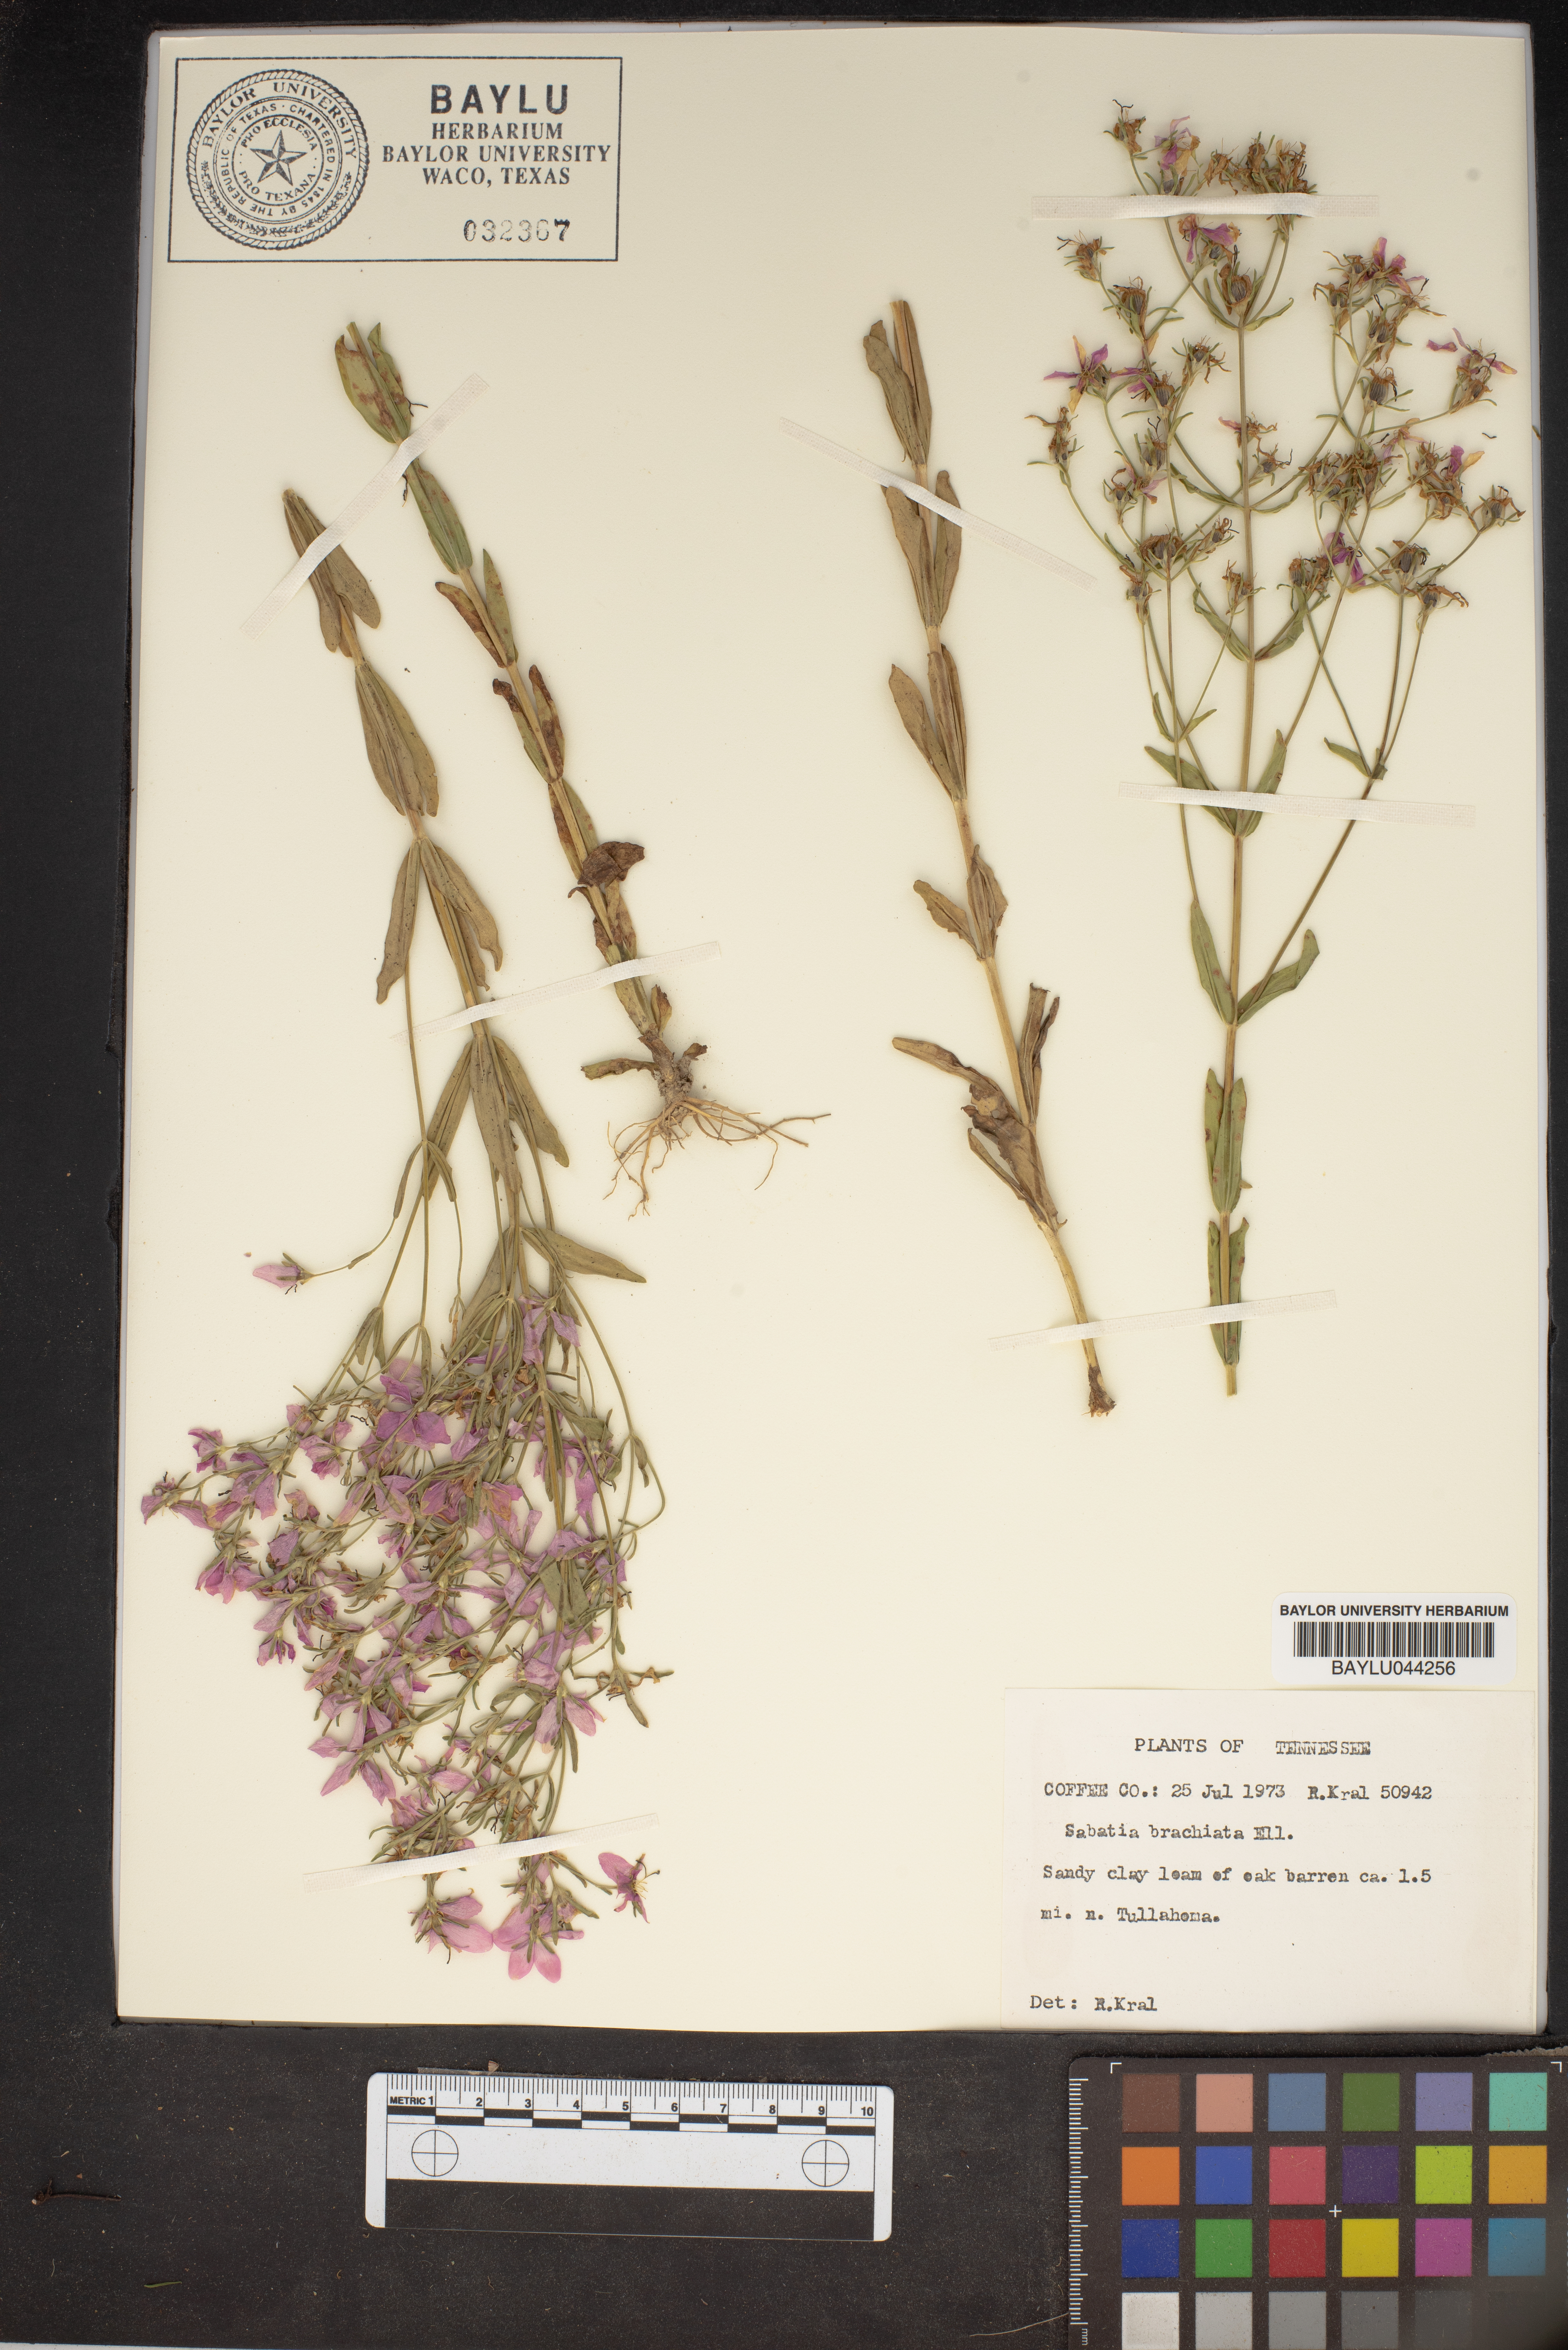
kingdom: Plantae
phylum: Tracheophyta
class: Magnoliopsida
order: Gentianales
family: Gentianaceae
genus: Sabatia
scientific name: Sabatia brachiata
